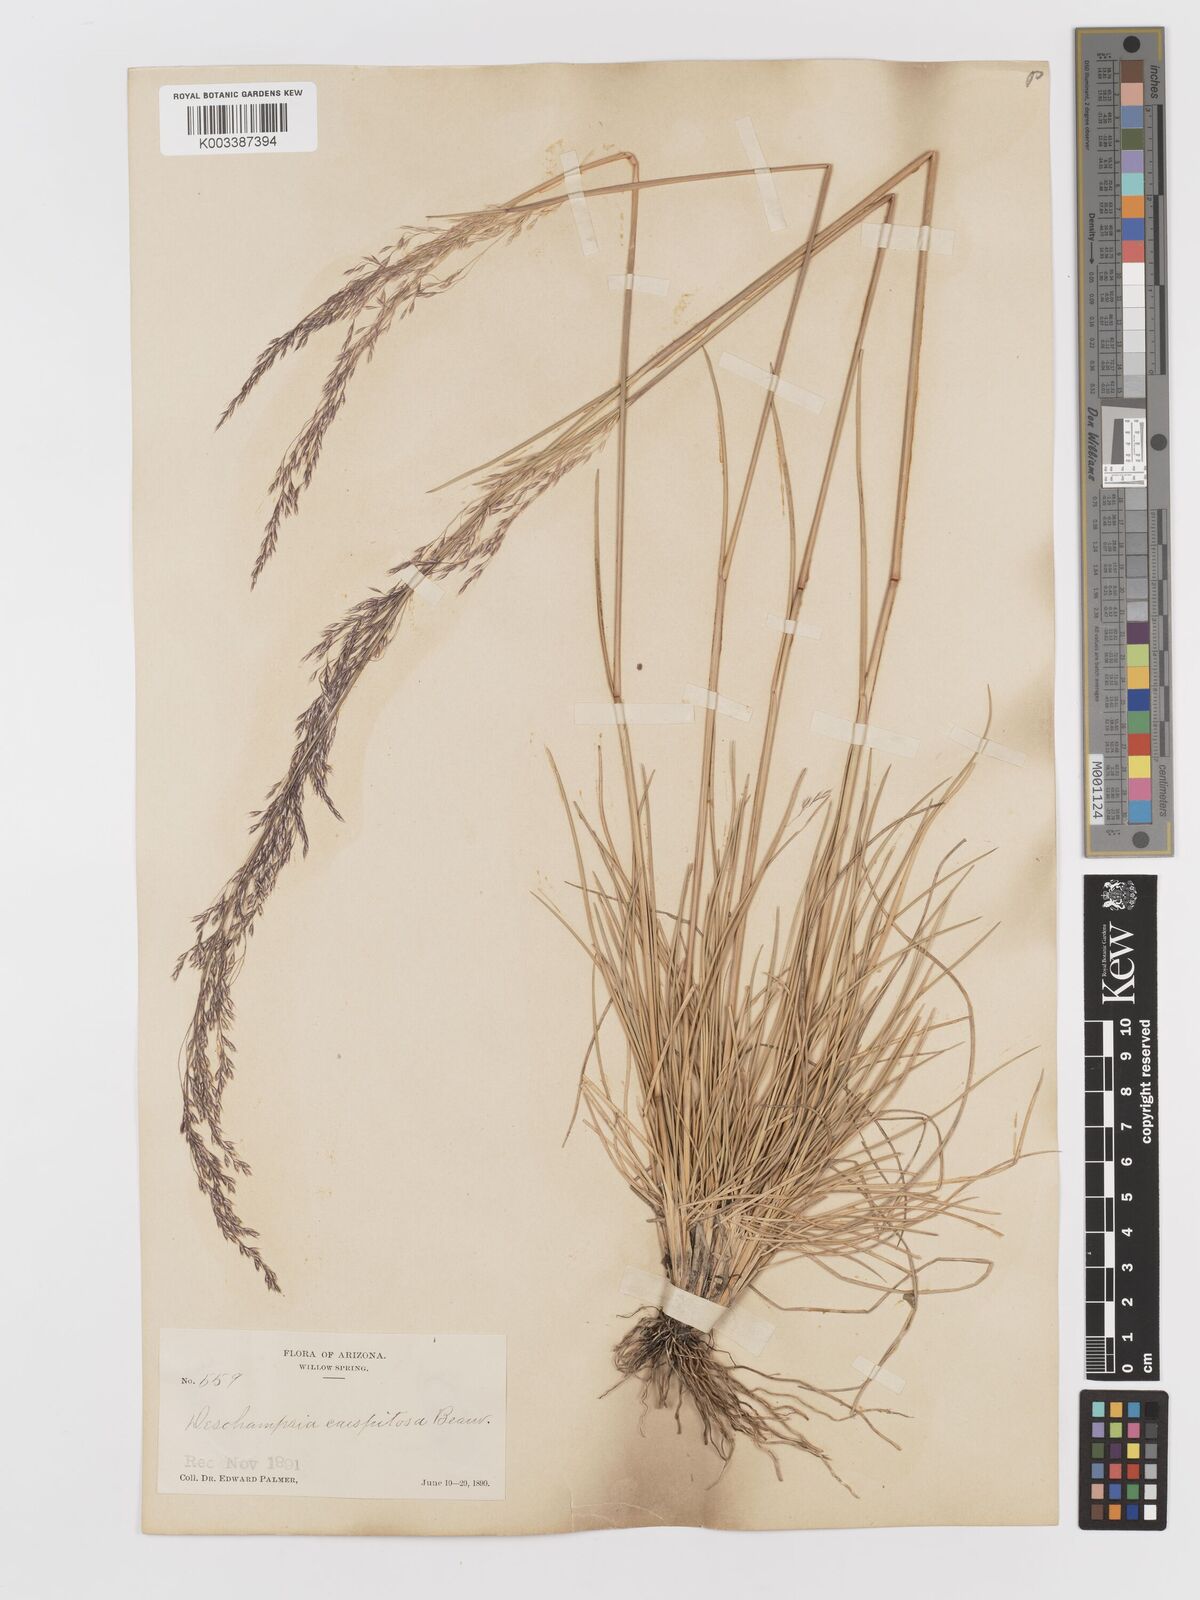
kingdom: Plantae
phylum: Tracheophyta
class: Liliopsida
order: Poales
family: Poaceae
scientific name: Poaceae
